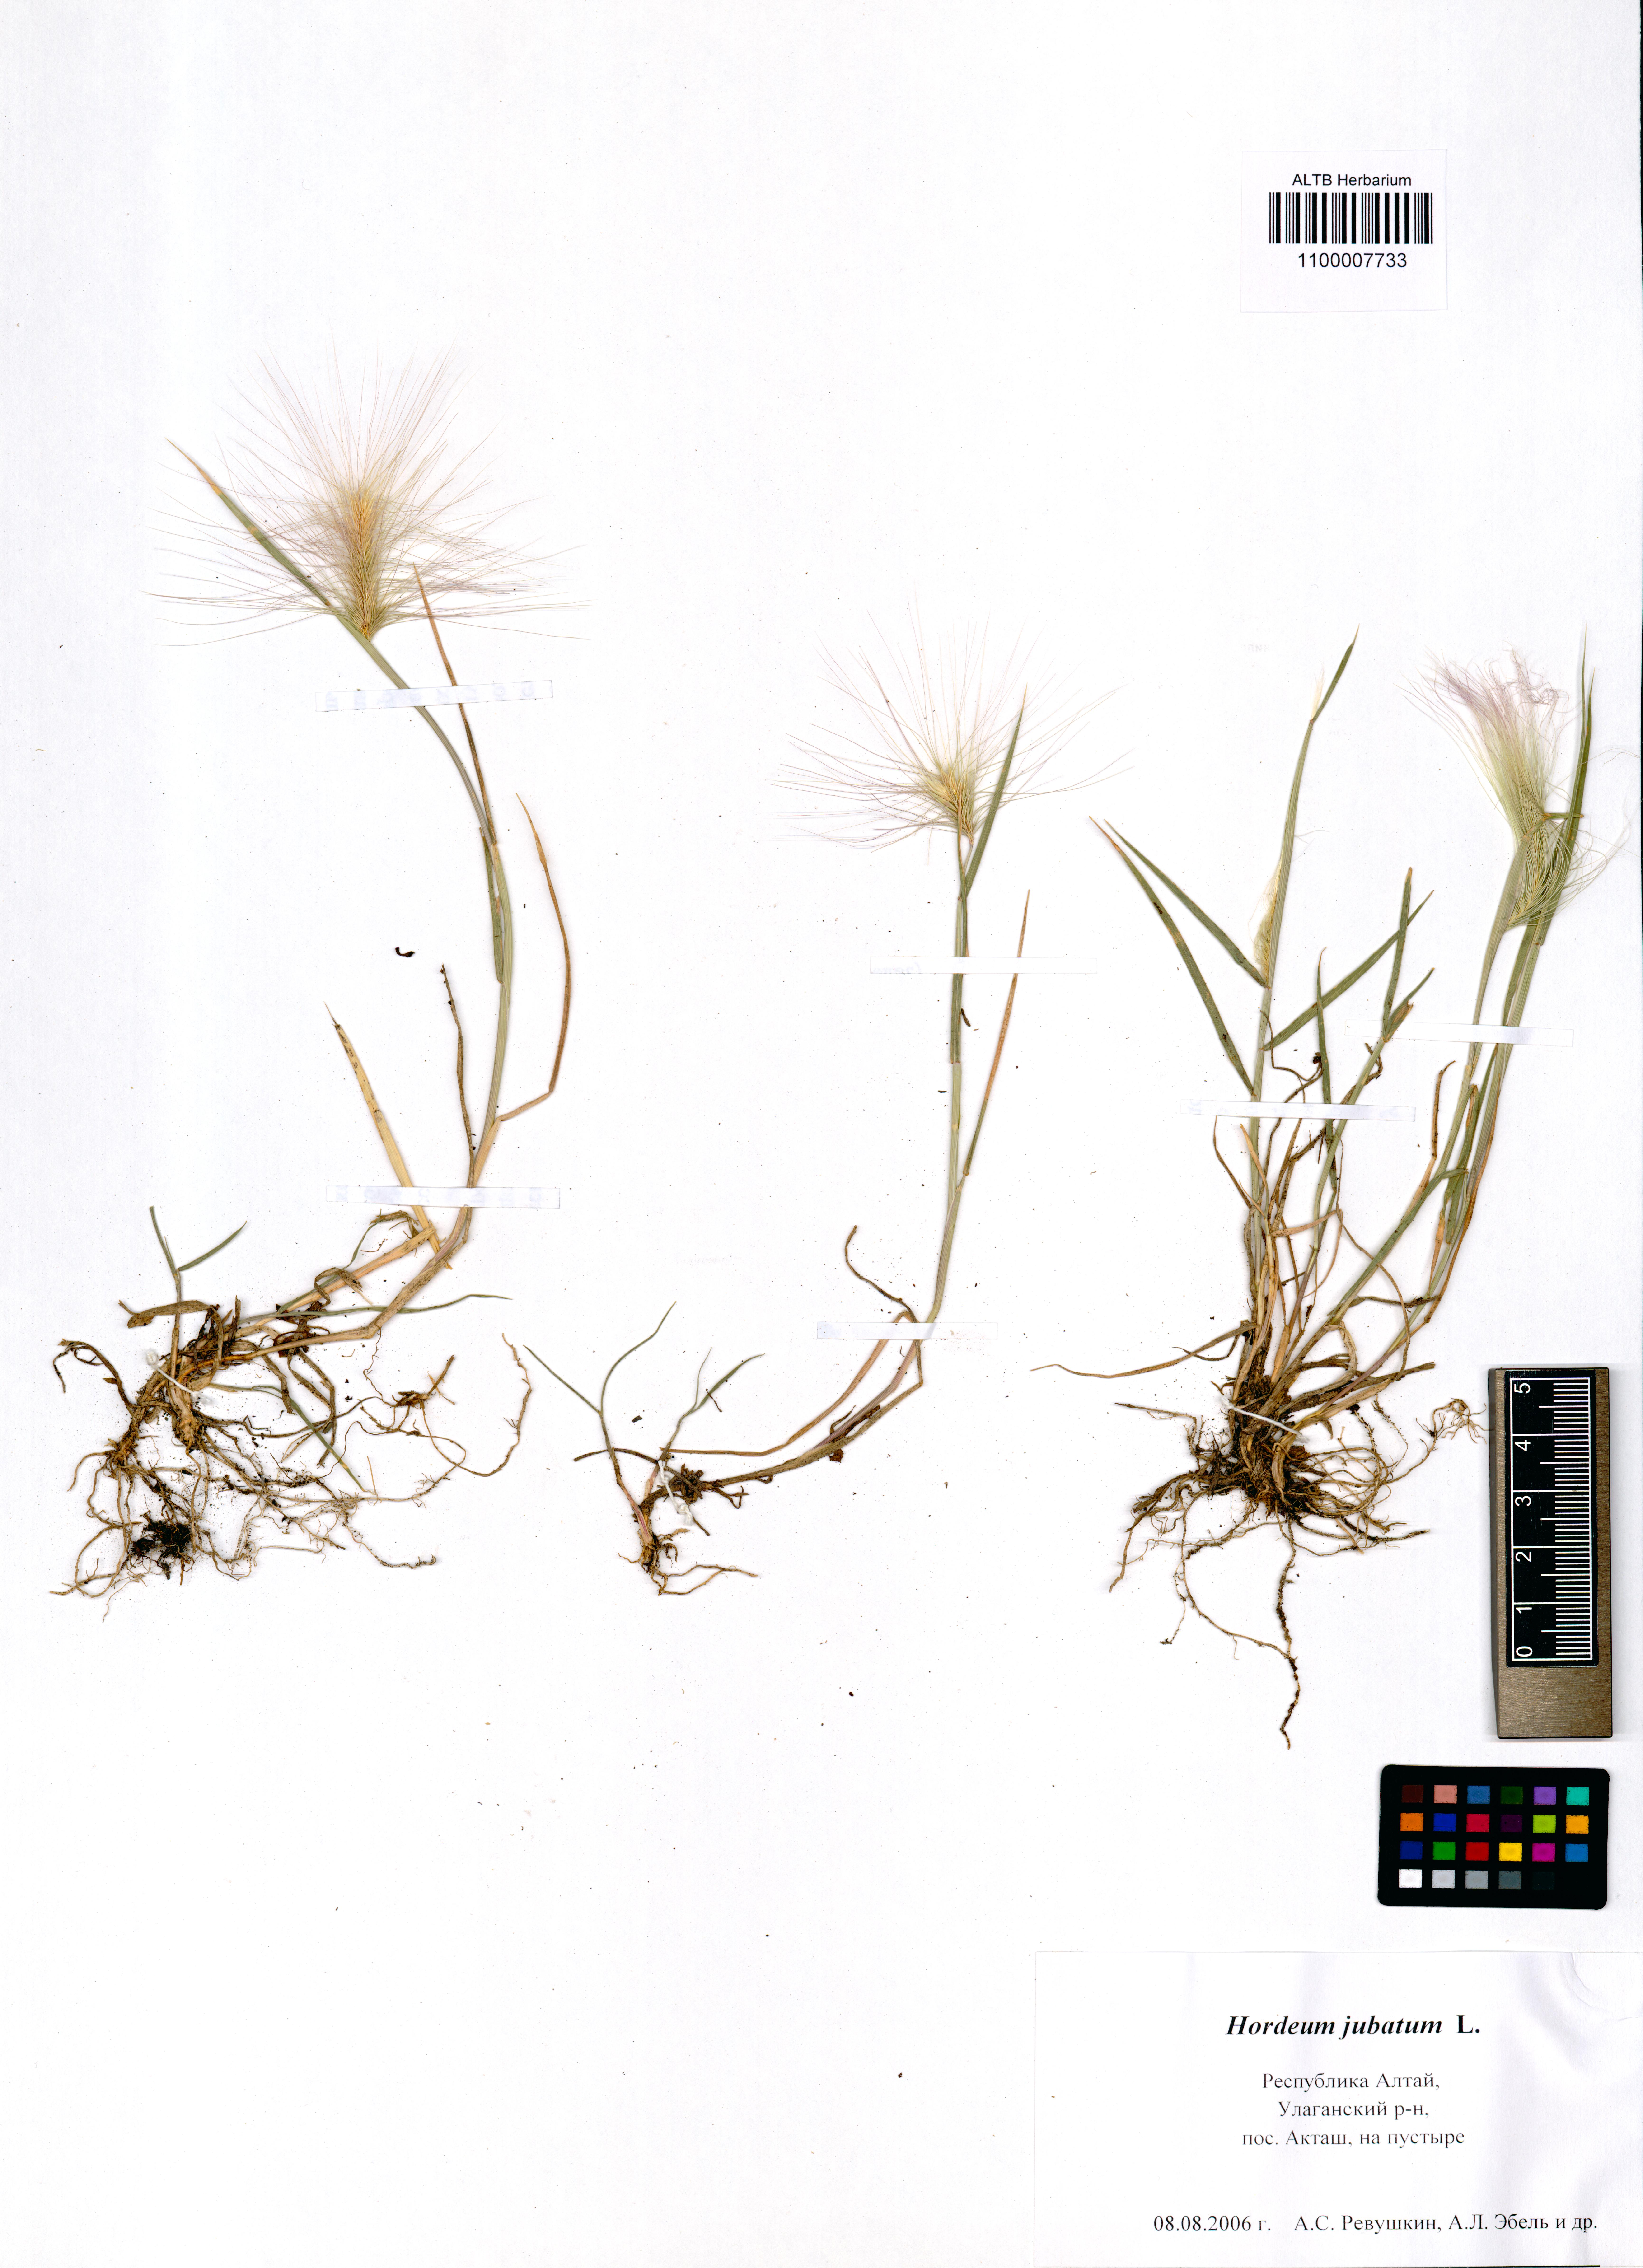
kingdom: Plantae
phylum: Tracheophyta
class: Liliopsida
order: Poales
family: Poaceae
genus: Hordeum
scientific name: Hordeum jubatum
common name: Foxtail barley
